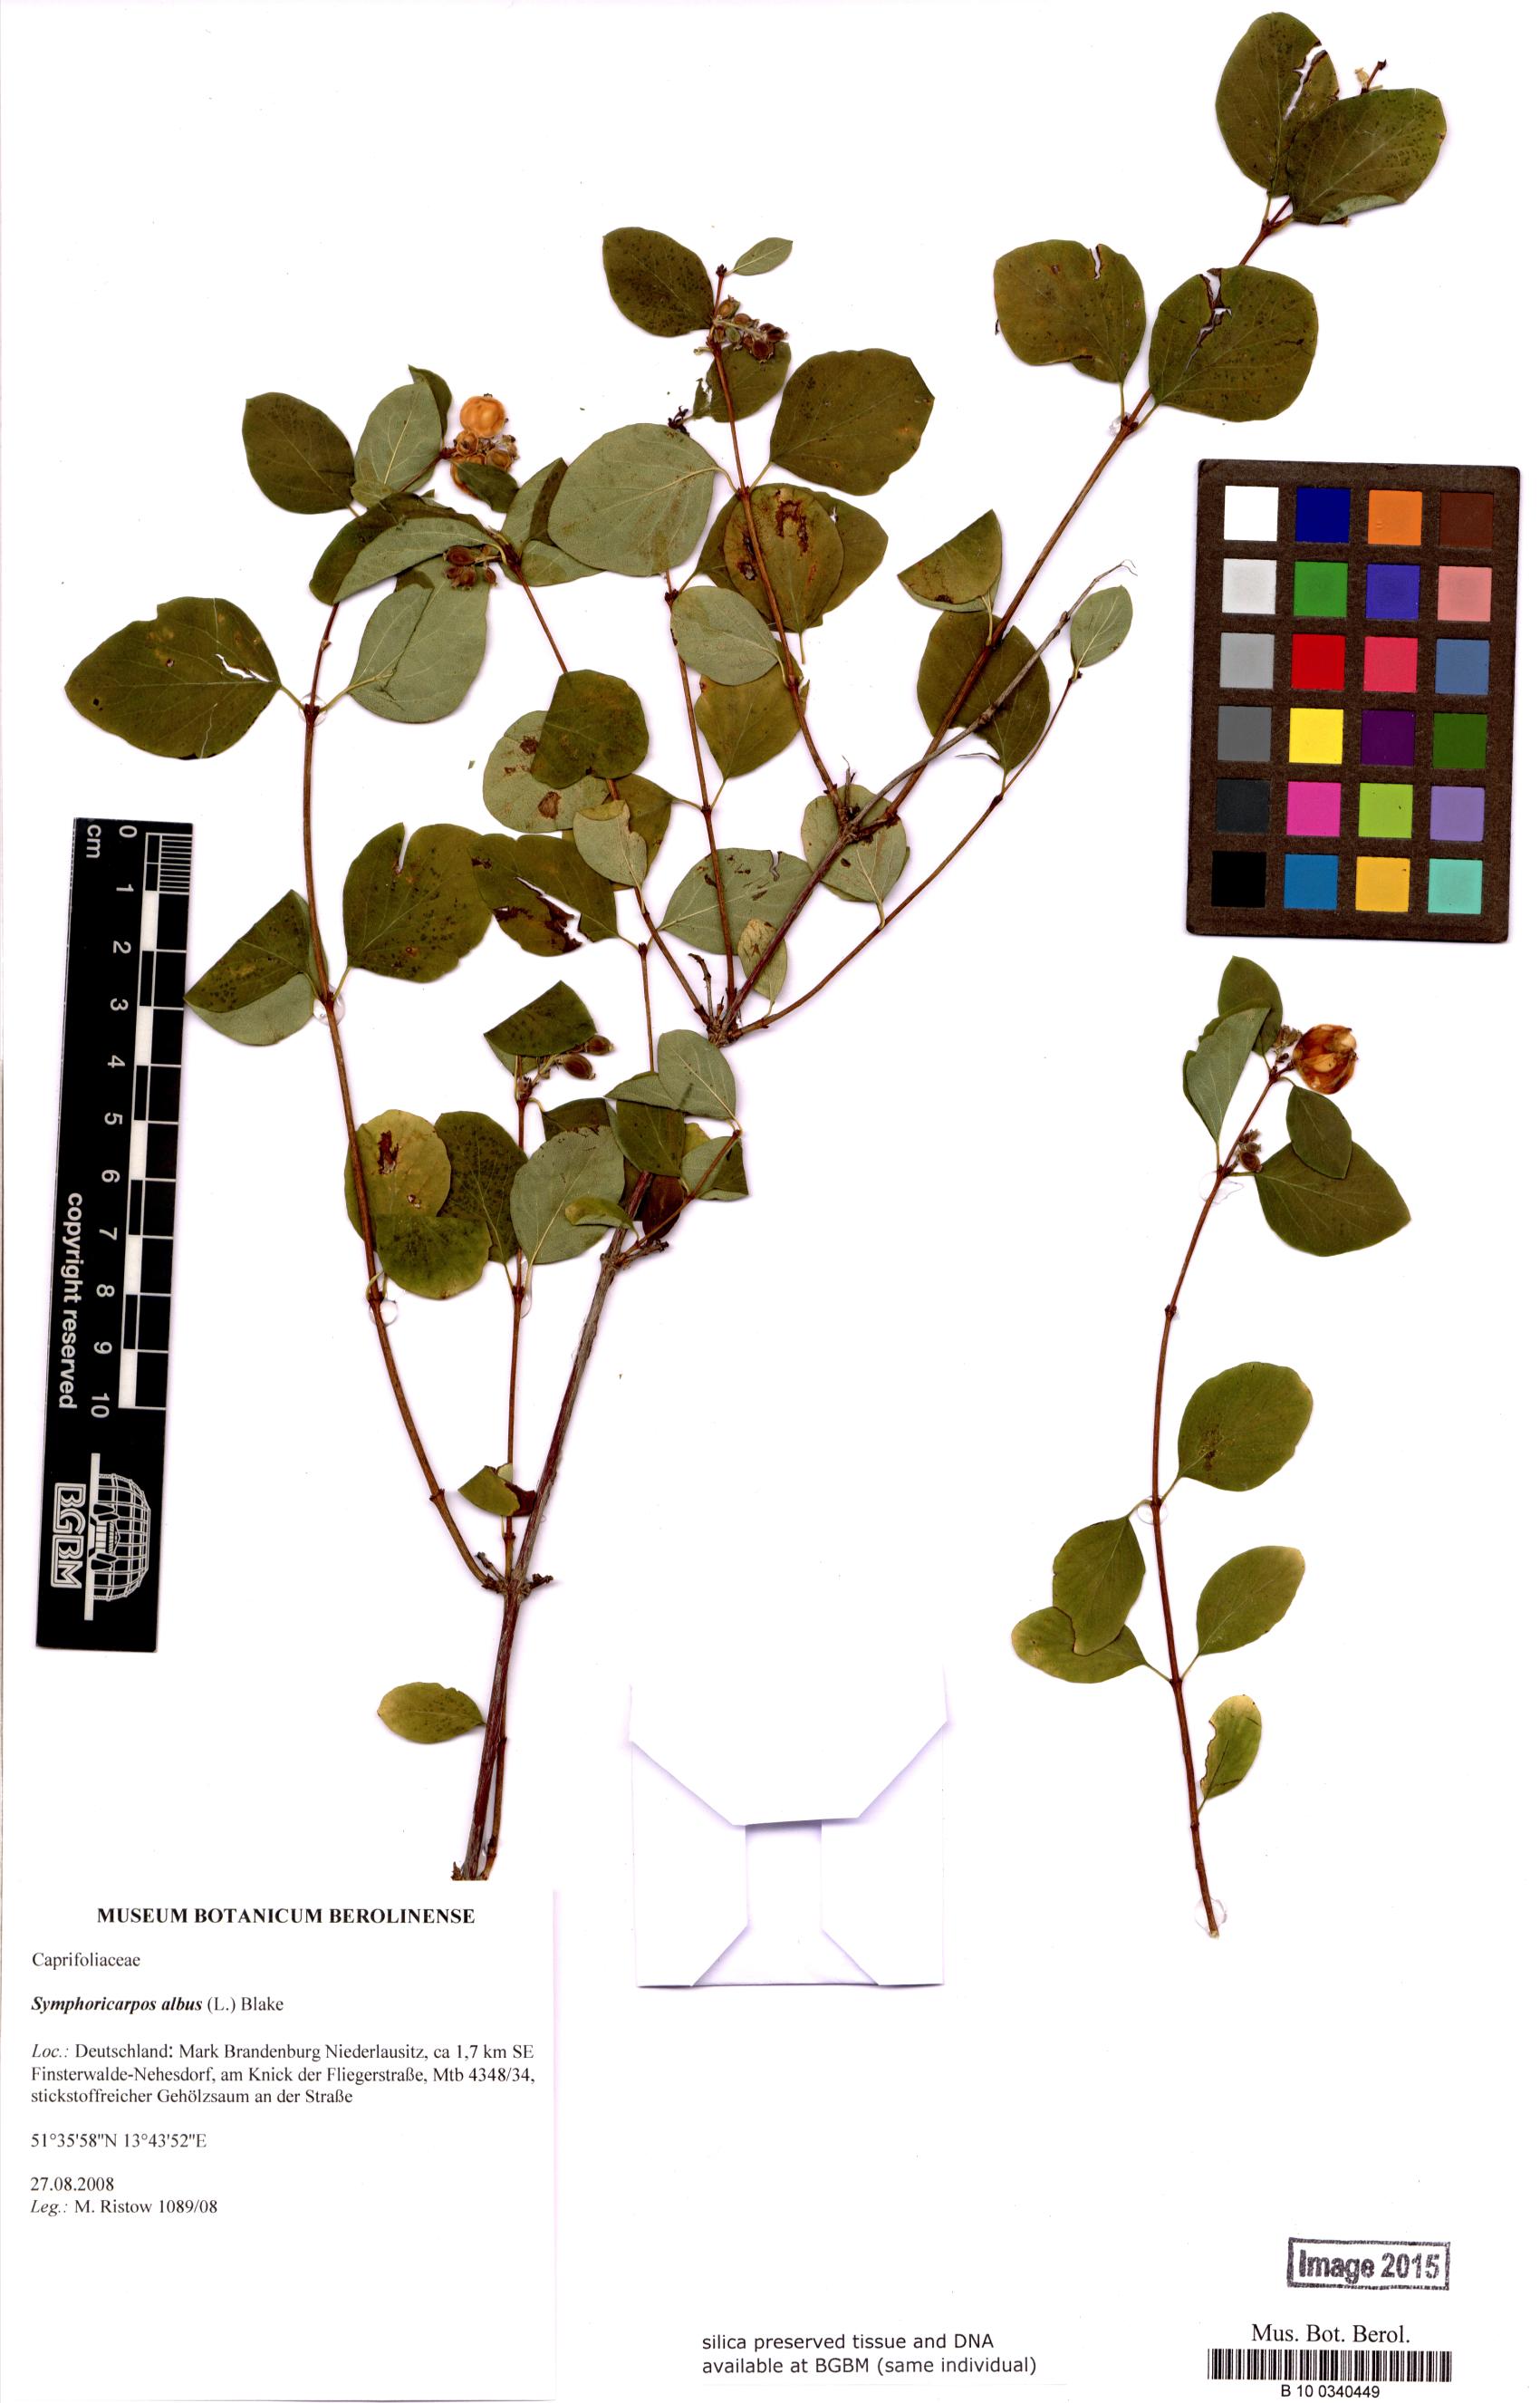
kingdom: Plantae
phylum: Tracheophyta
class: Magnoliopsida
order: Dipsacales
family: Caprifoliaceae
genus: Symphoricarpos
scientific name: Symphoricarpos albus
